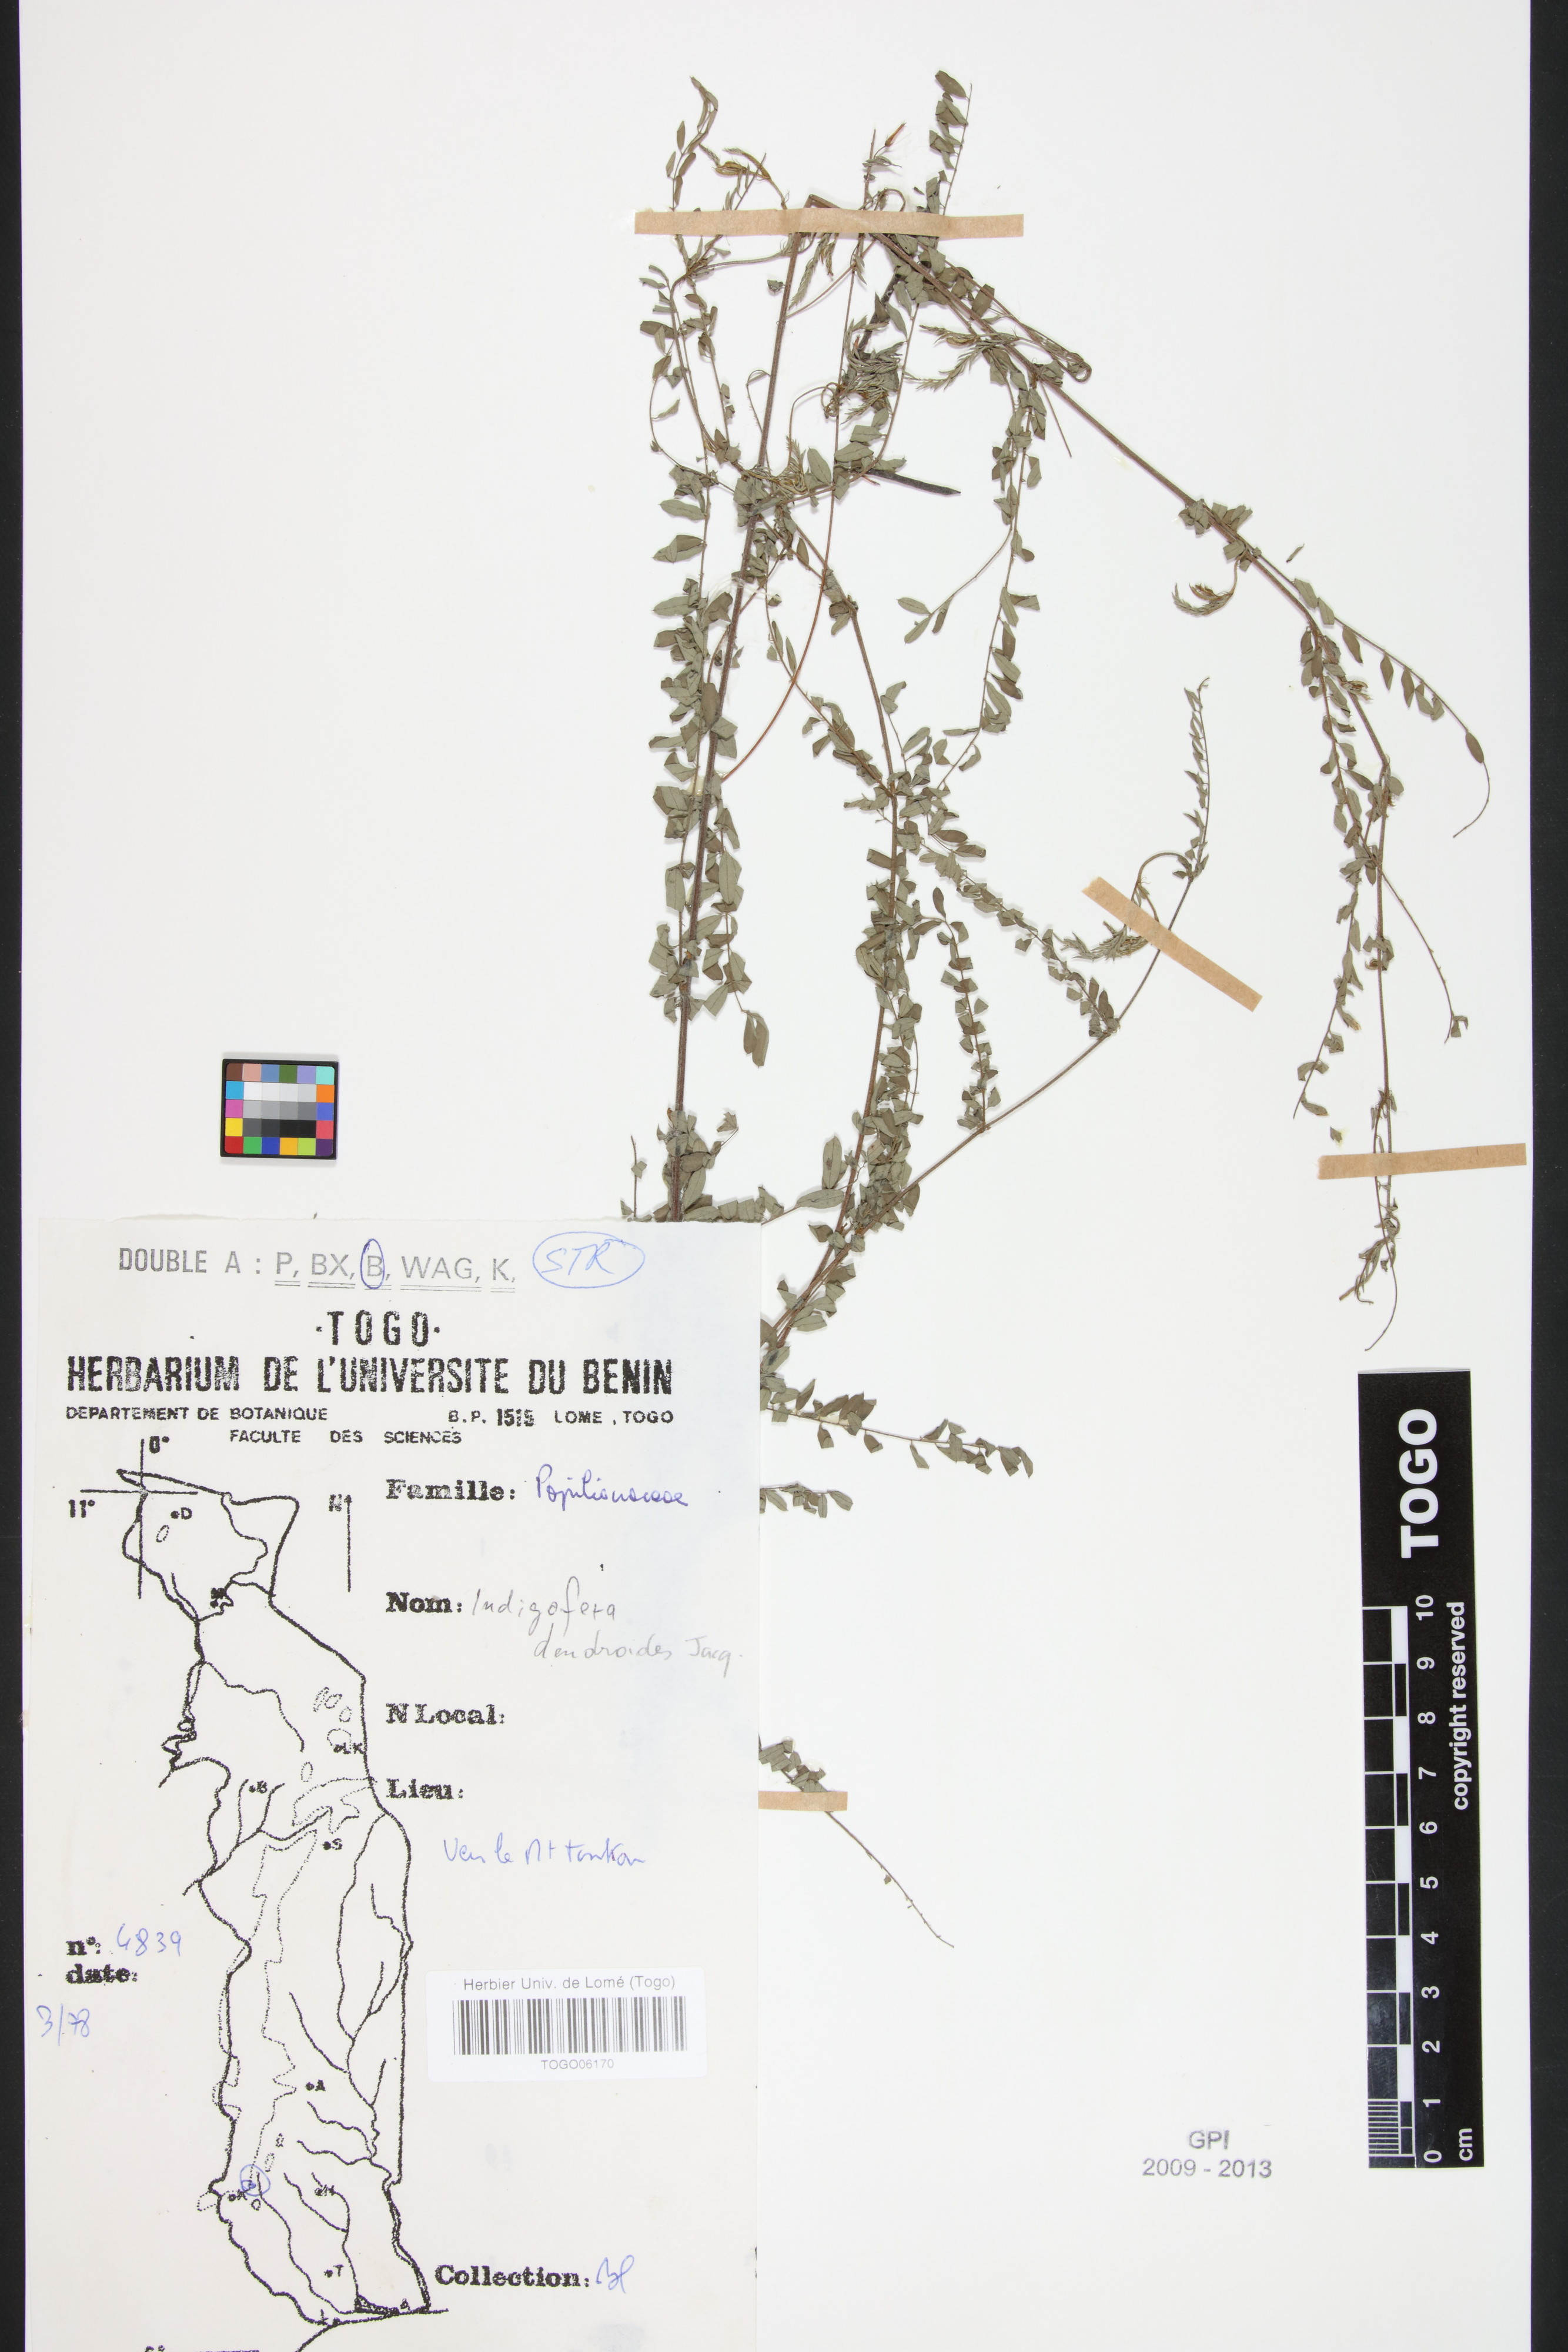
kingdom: Plantae
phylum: Tracheophyta
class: Magnoliopsida
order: Fabales
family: Fabaceae
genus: Indigofera
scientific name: Indigofera dendroides
